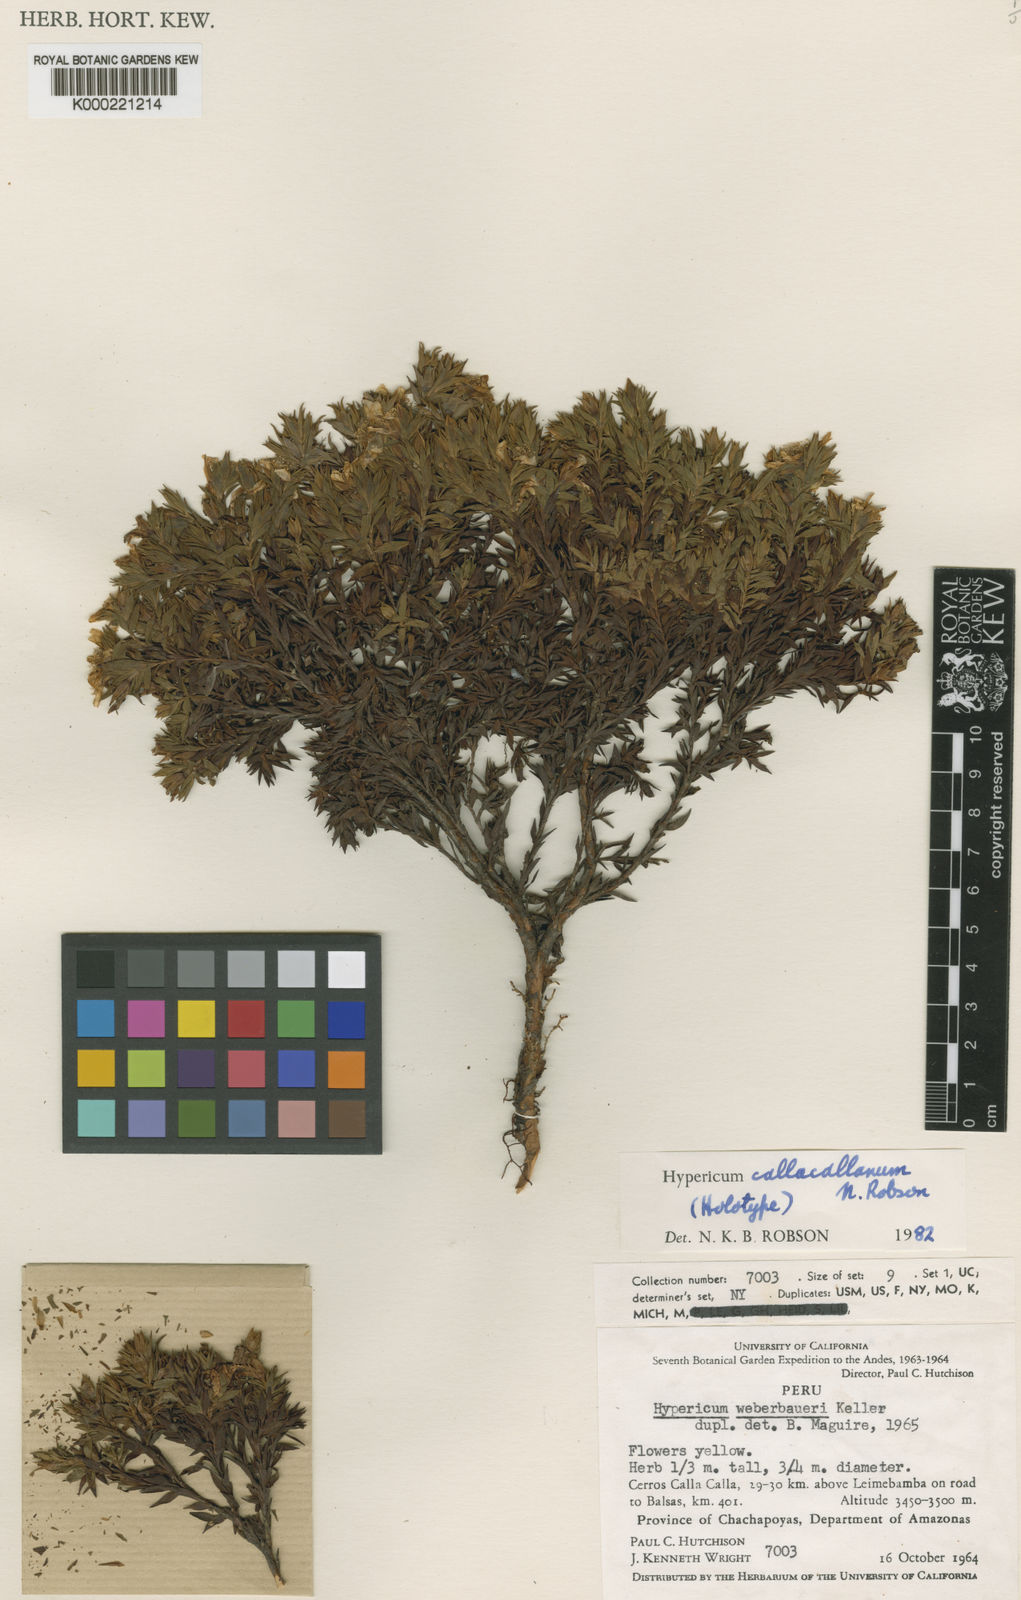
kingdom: Plantae
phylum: Tracheophyta
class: Magnoliopsida
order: Malpighiales
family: Hypericaceae
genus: Hypericum
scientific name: Hypericum callacallanum
